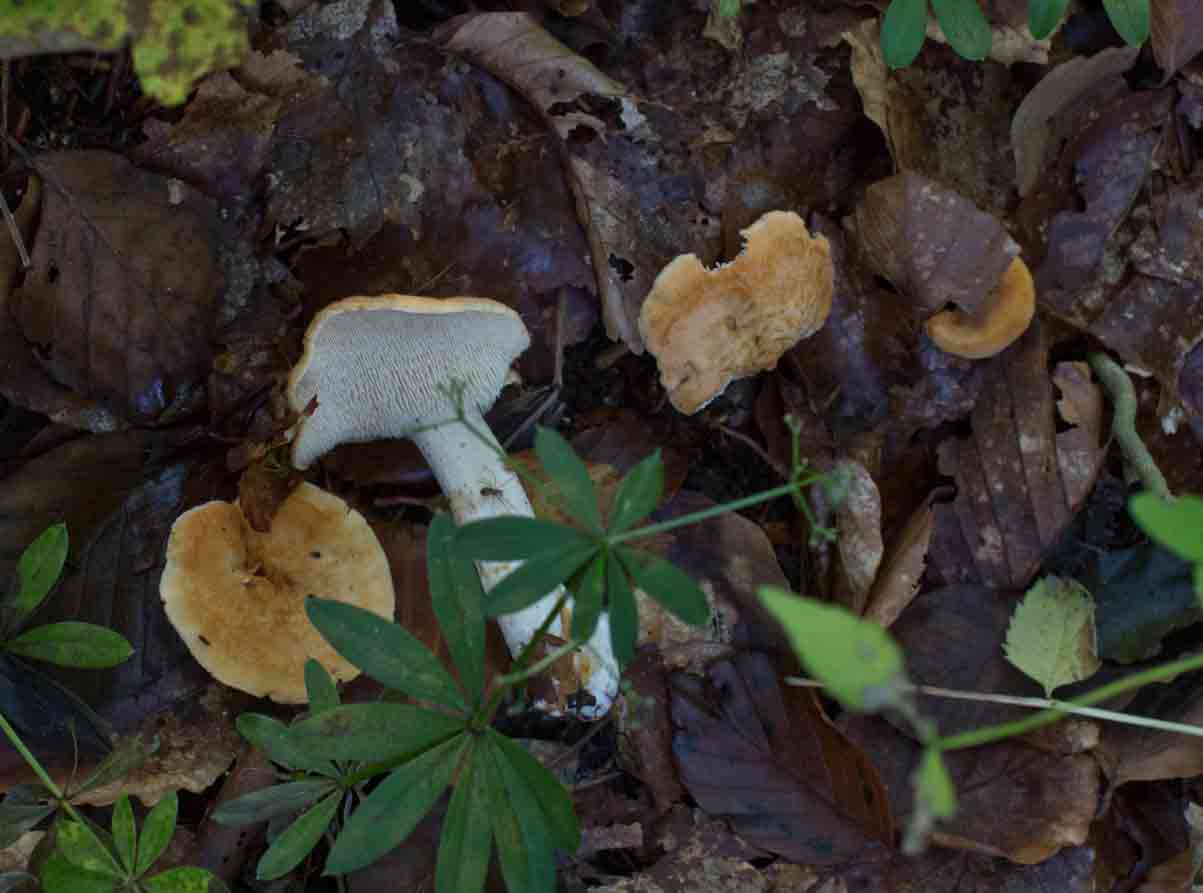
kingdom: Fungi
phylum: Basidiomycota
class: Agaricomycetes
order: Cantharellales
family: Hydnaceae
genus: Hydnum
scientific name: Hydnum
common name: pigsvamp
